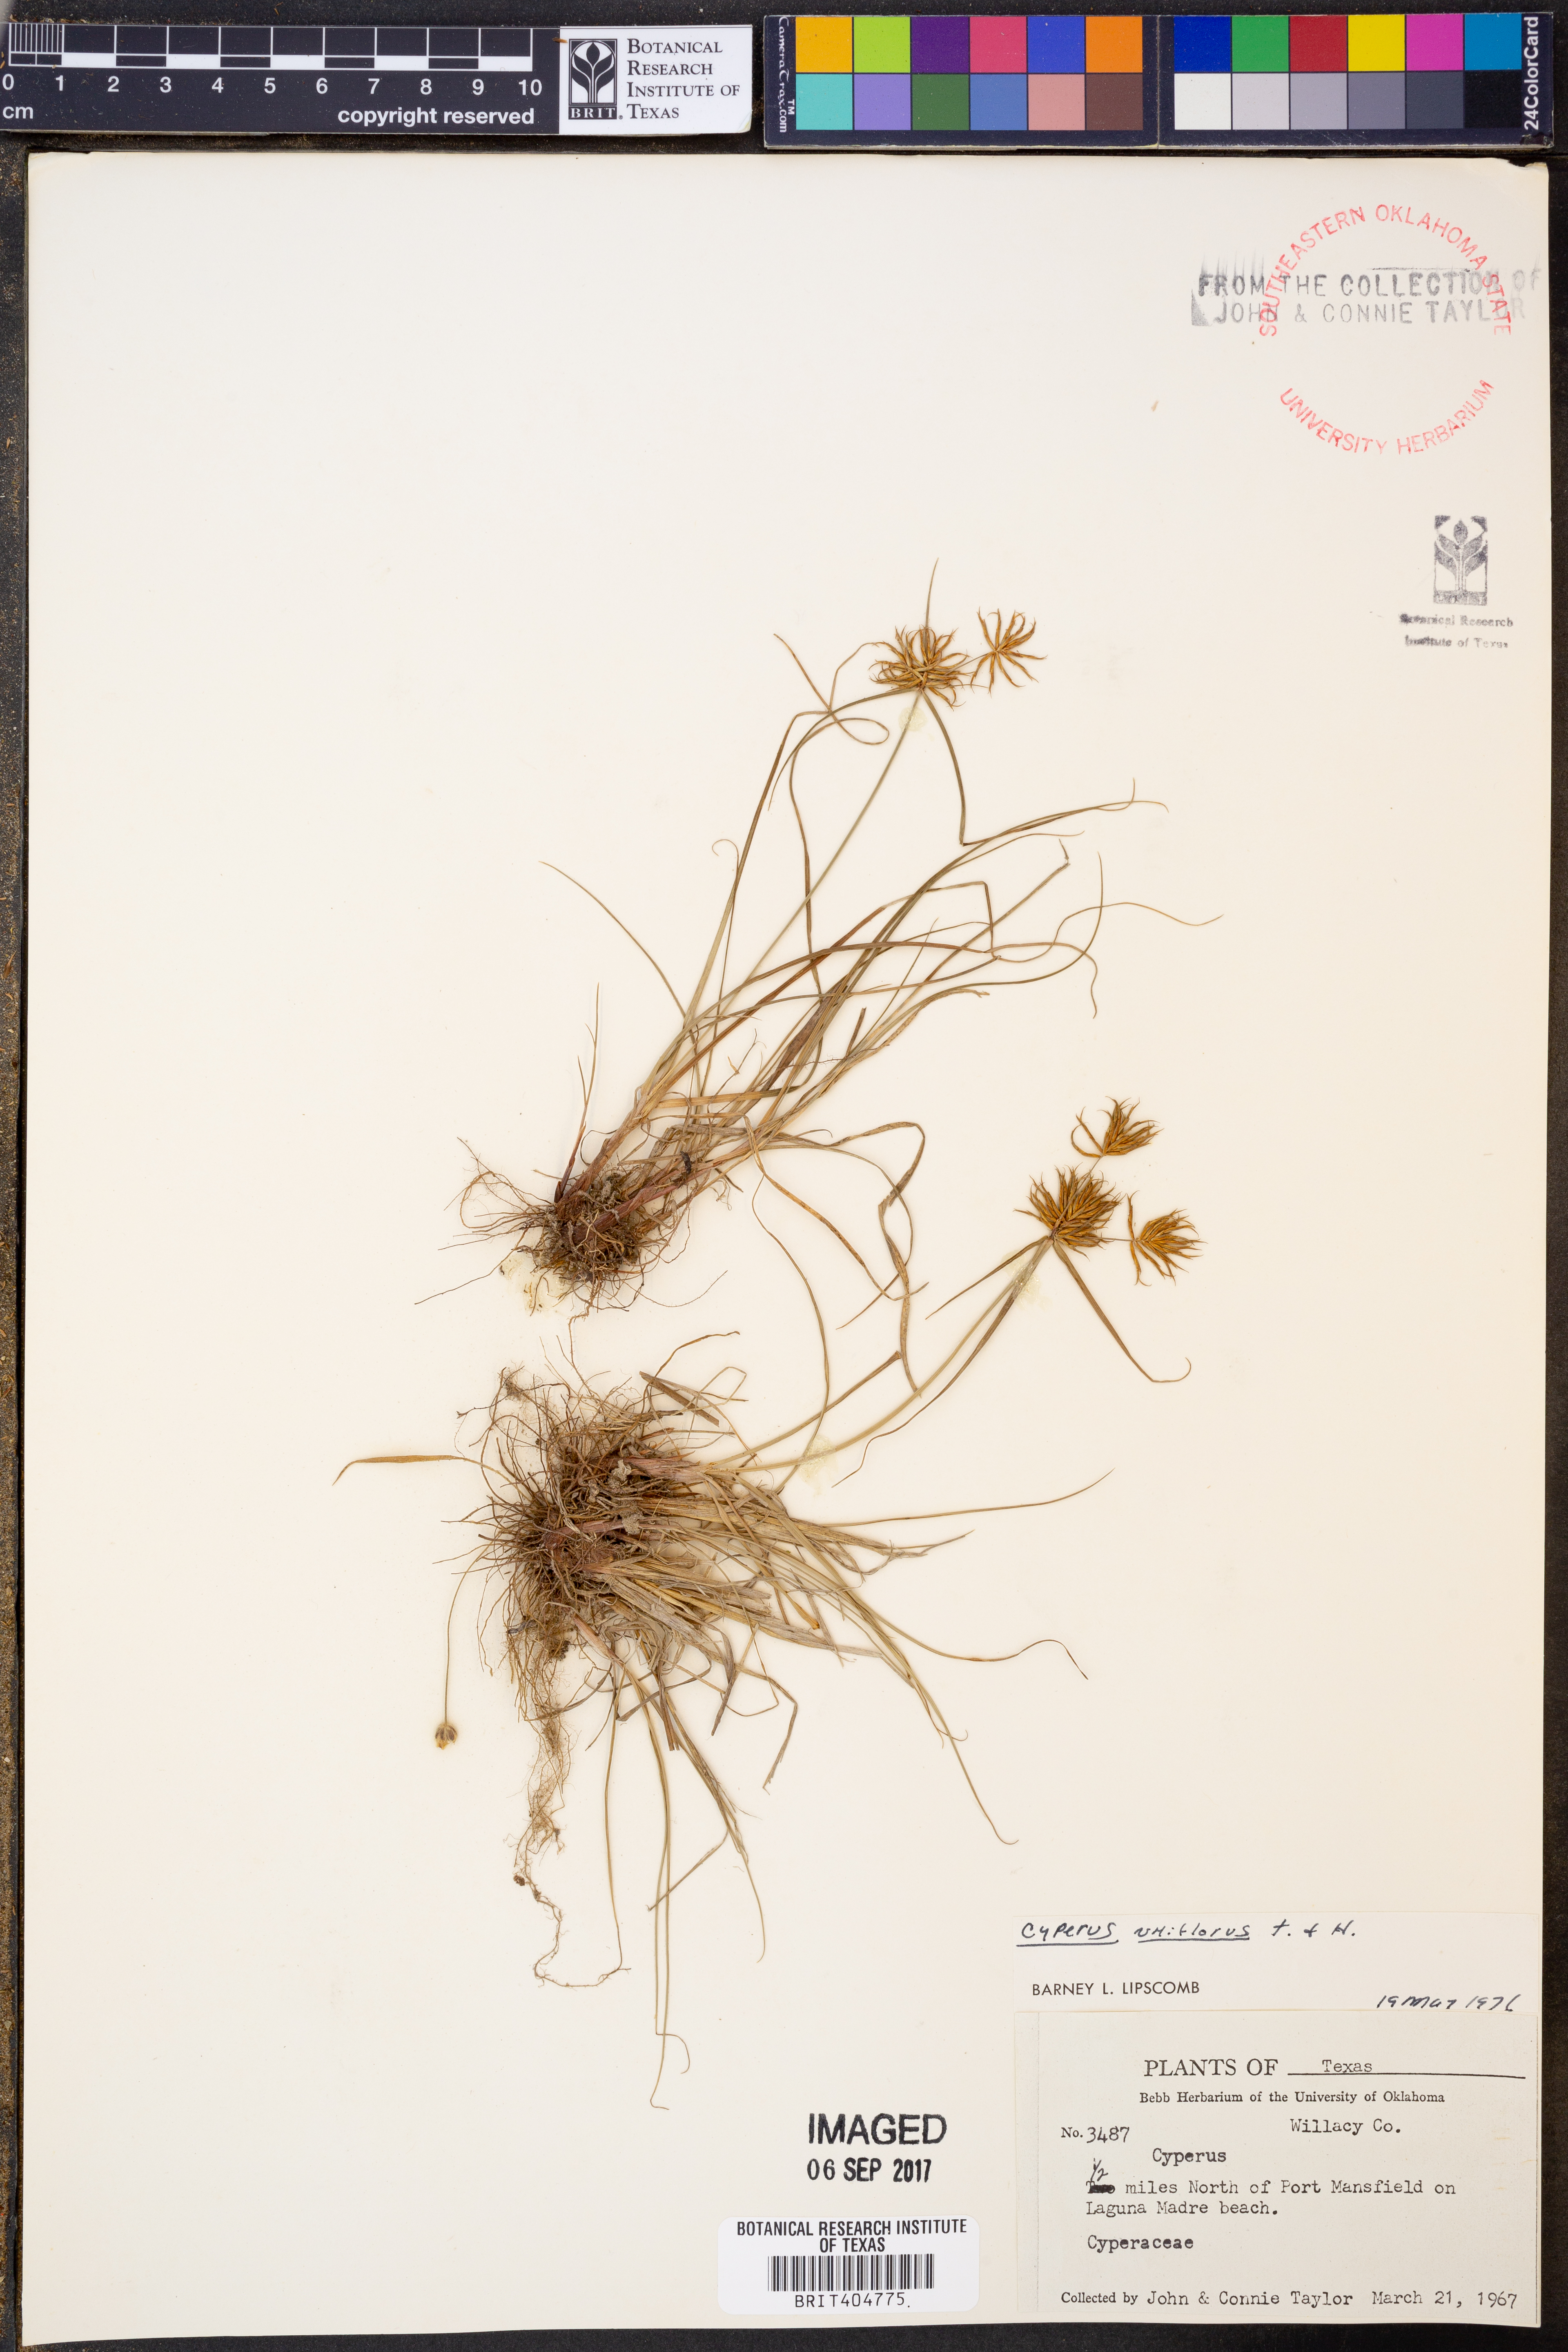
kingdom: Plantae
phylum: Tracheophyta
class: Liliopsida
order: Poales
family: Cyperaceae
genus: Cyperus
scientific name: Cyperus retroflexus
